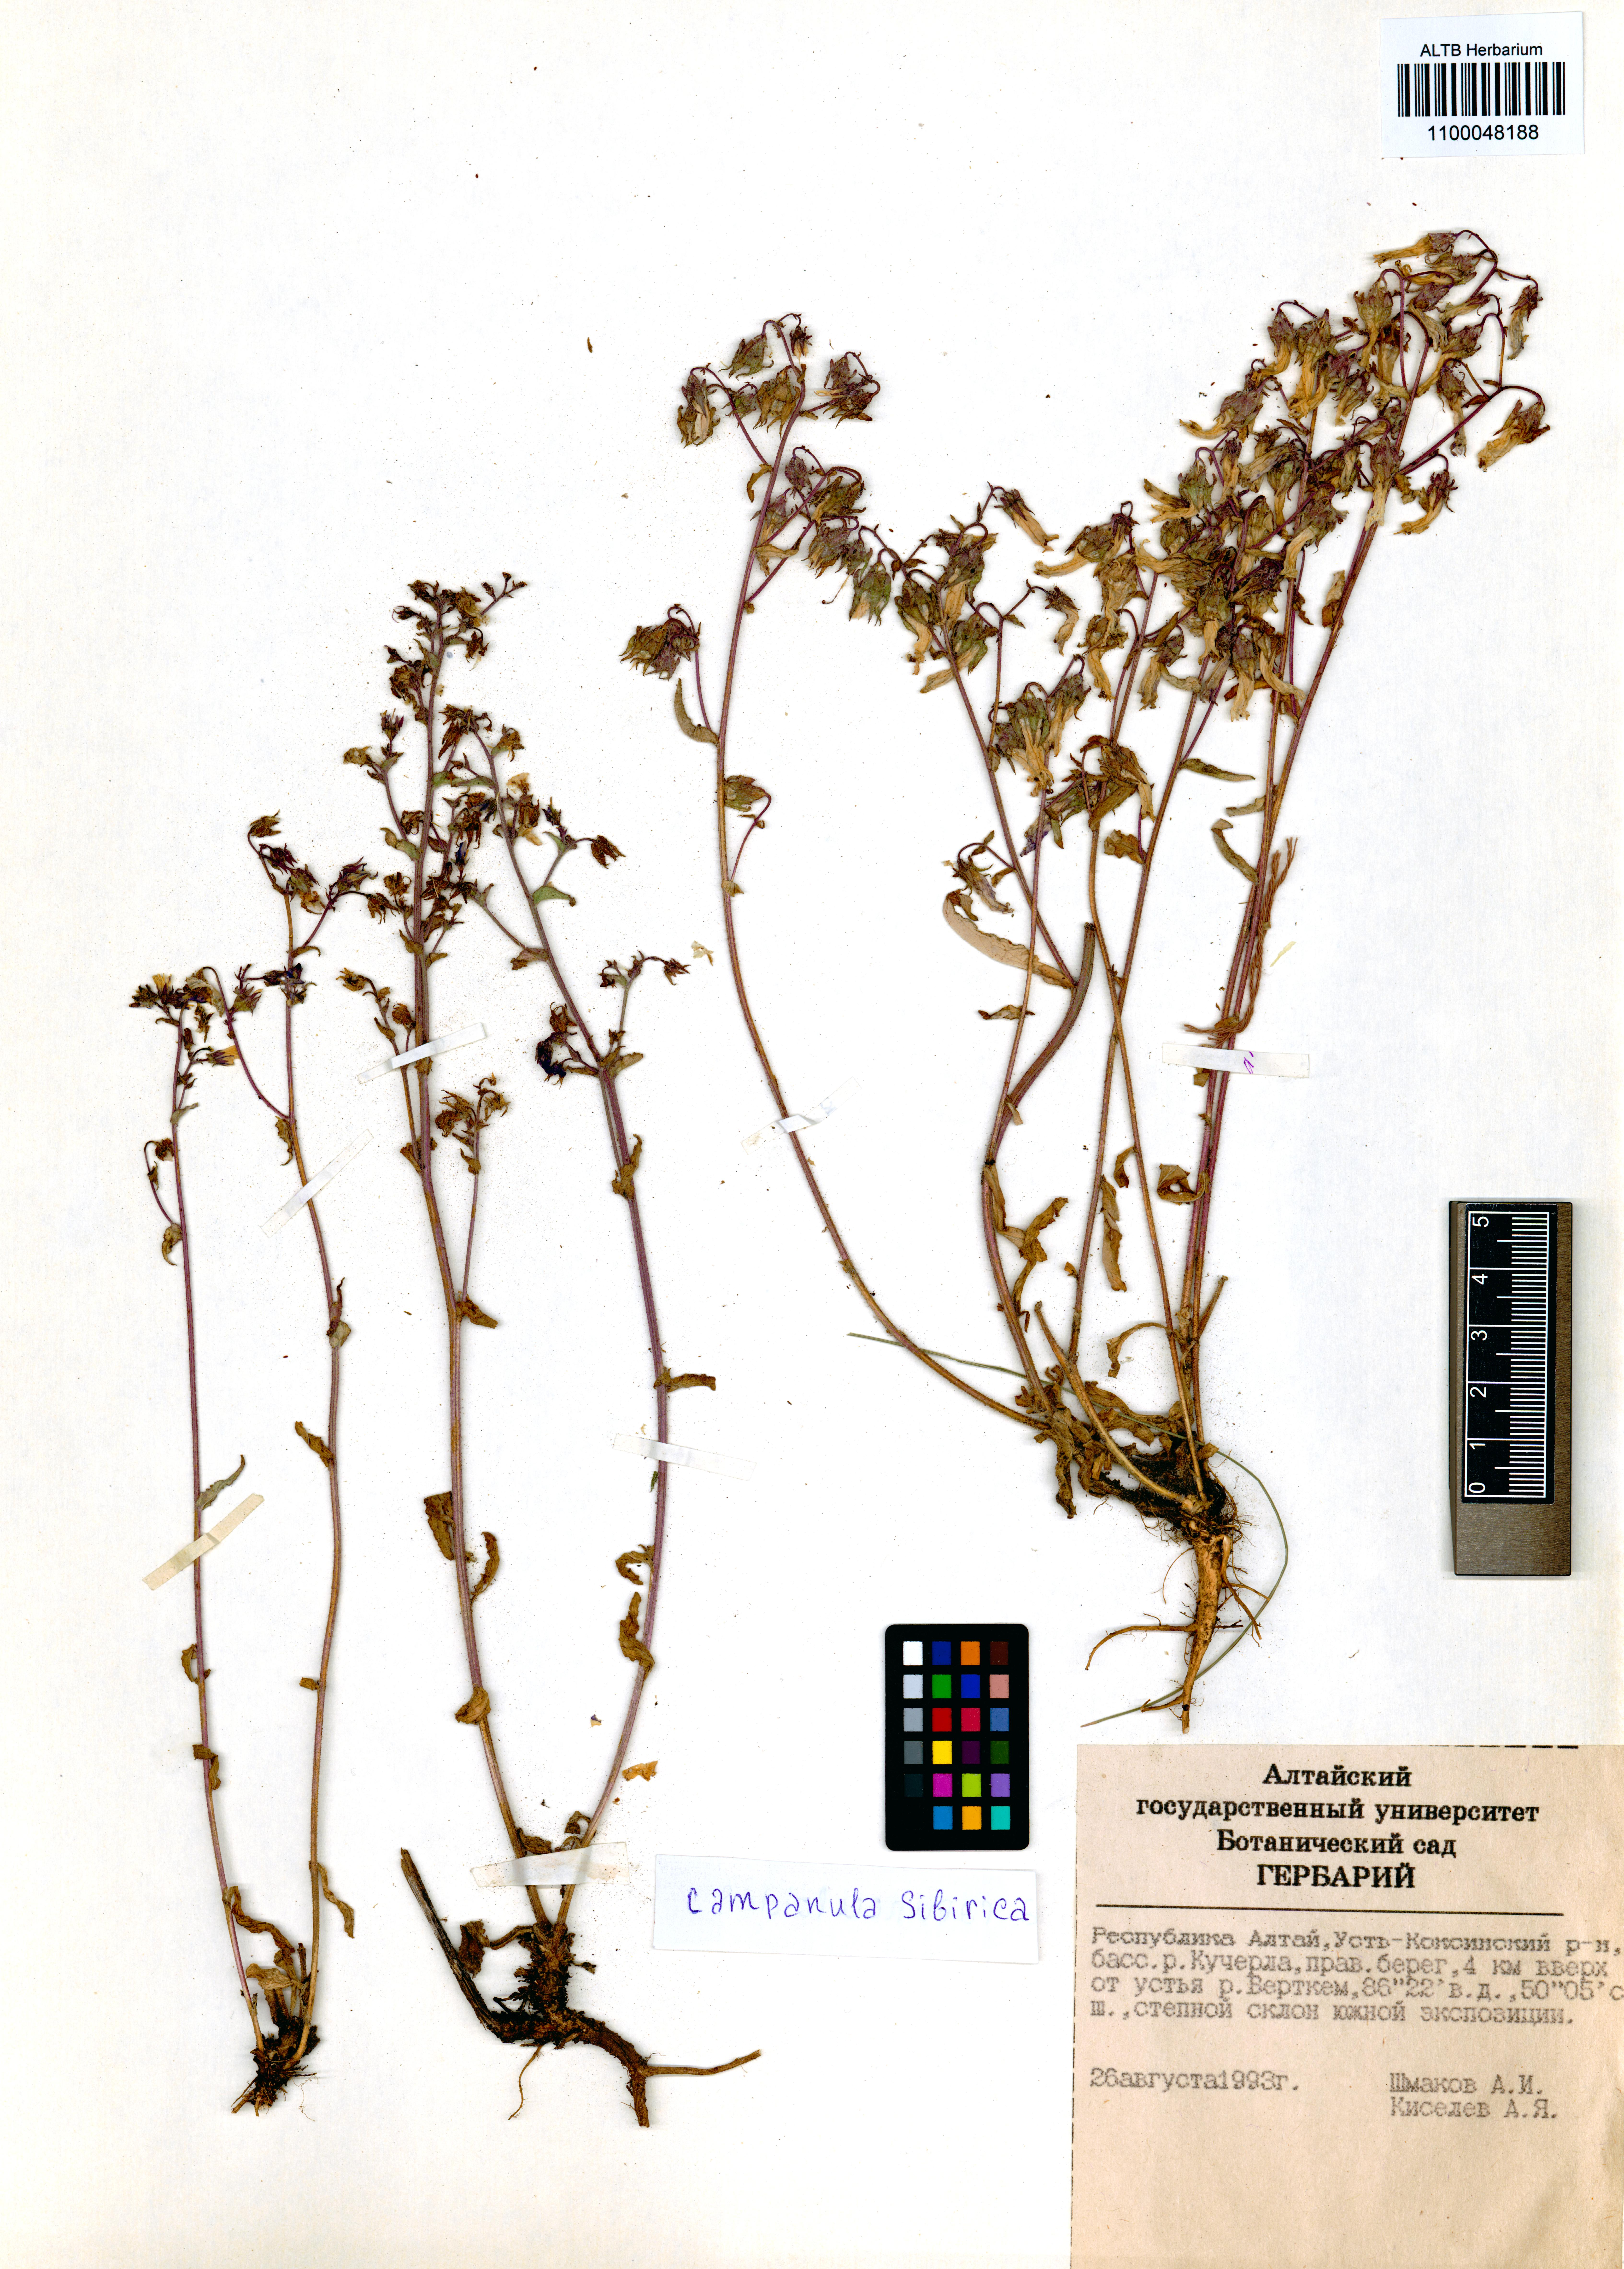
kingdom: Plantae
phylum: Tracheophyta
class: Magnoliopsida
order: Asterales
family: Campanulaceae
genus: Campanula
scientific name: Campanula sibirica
